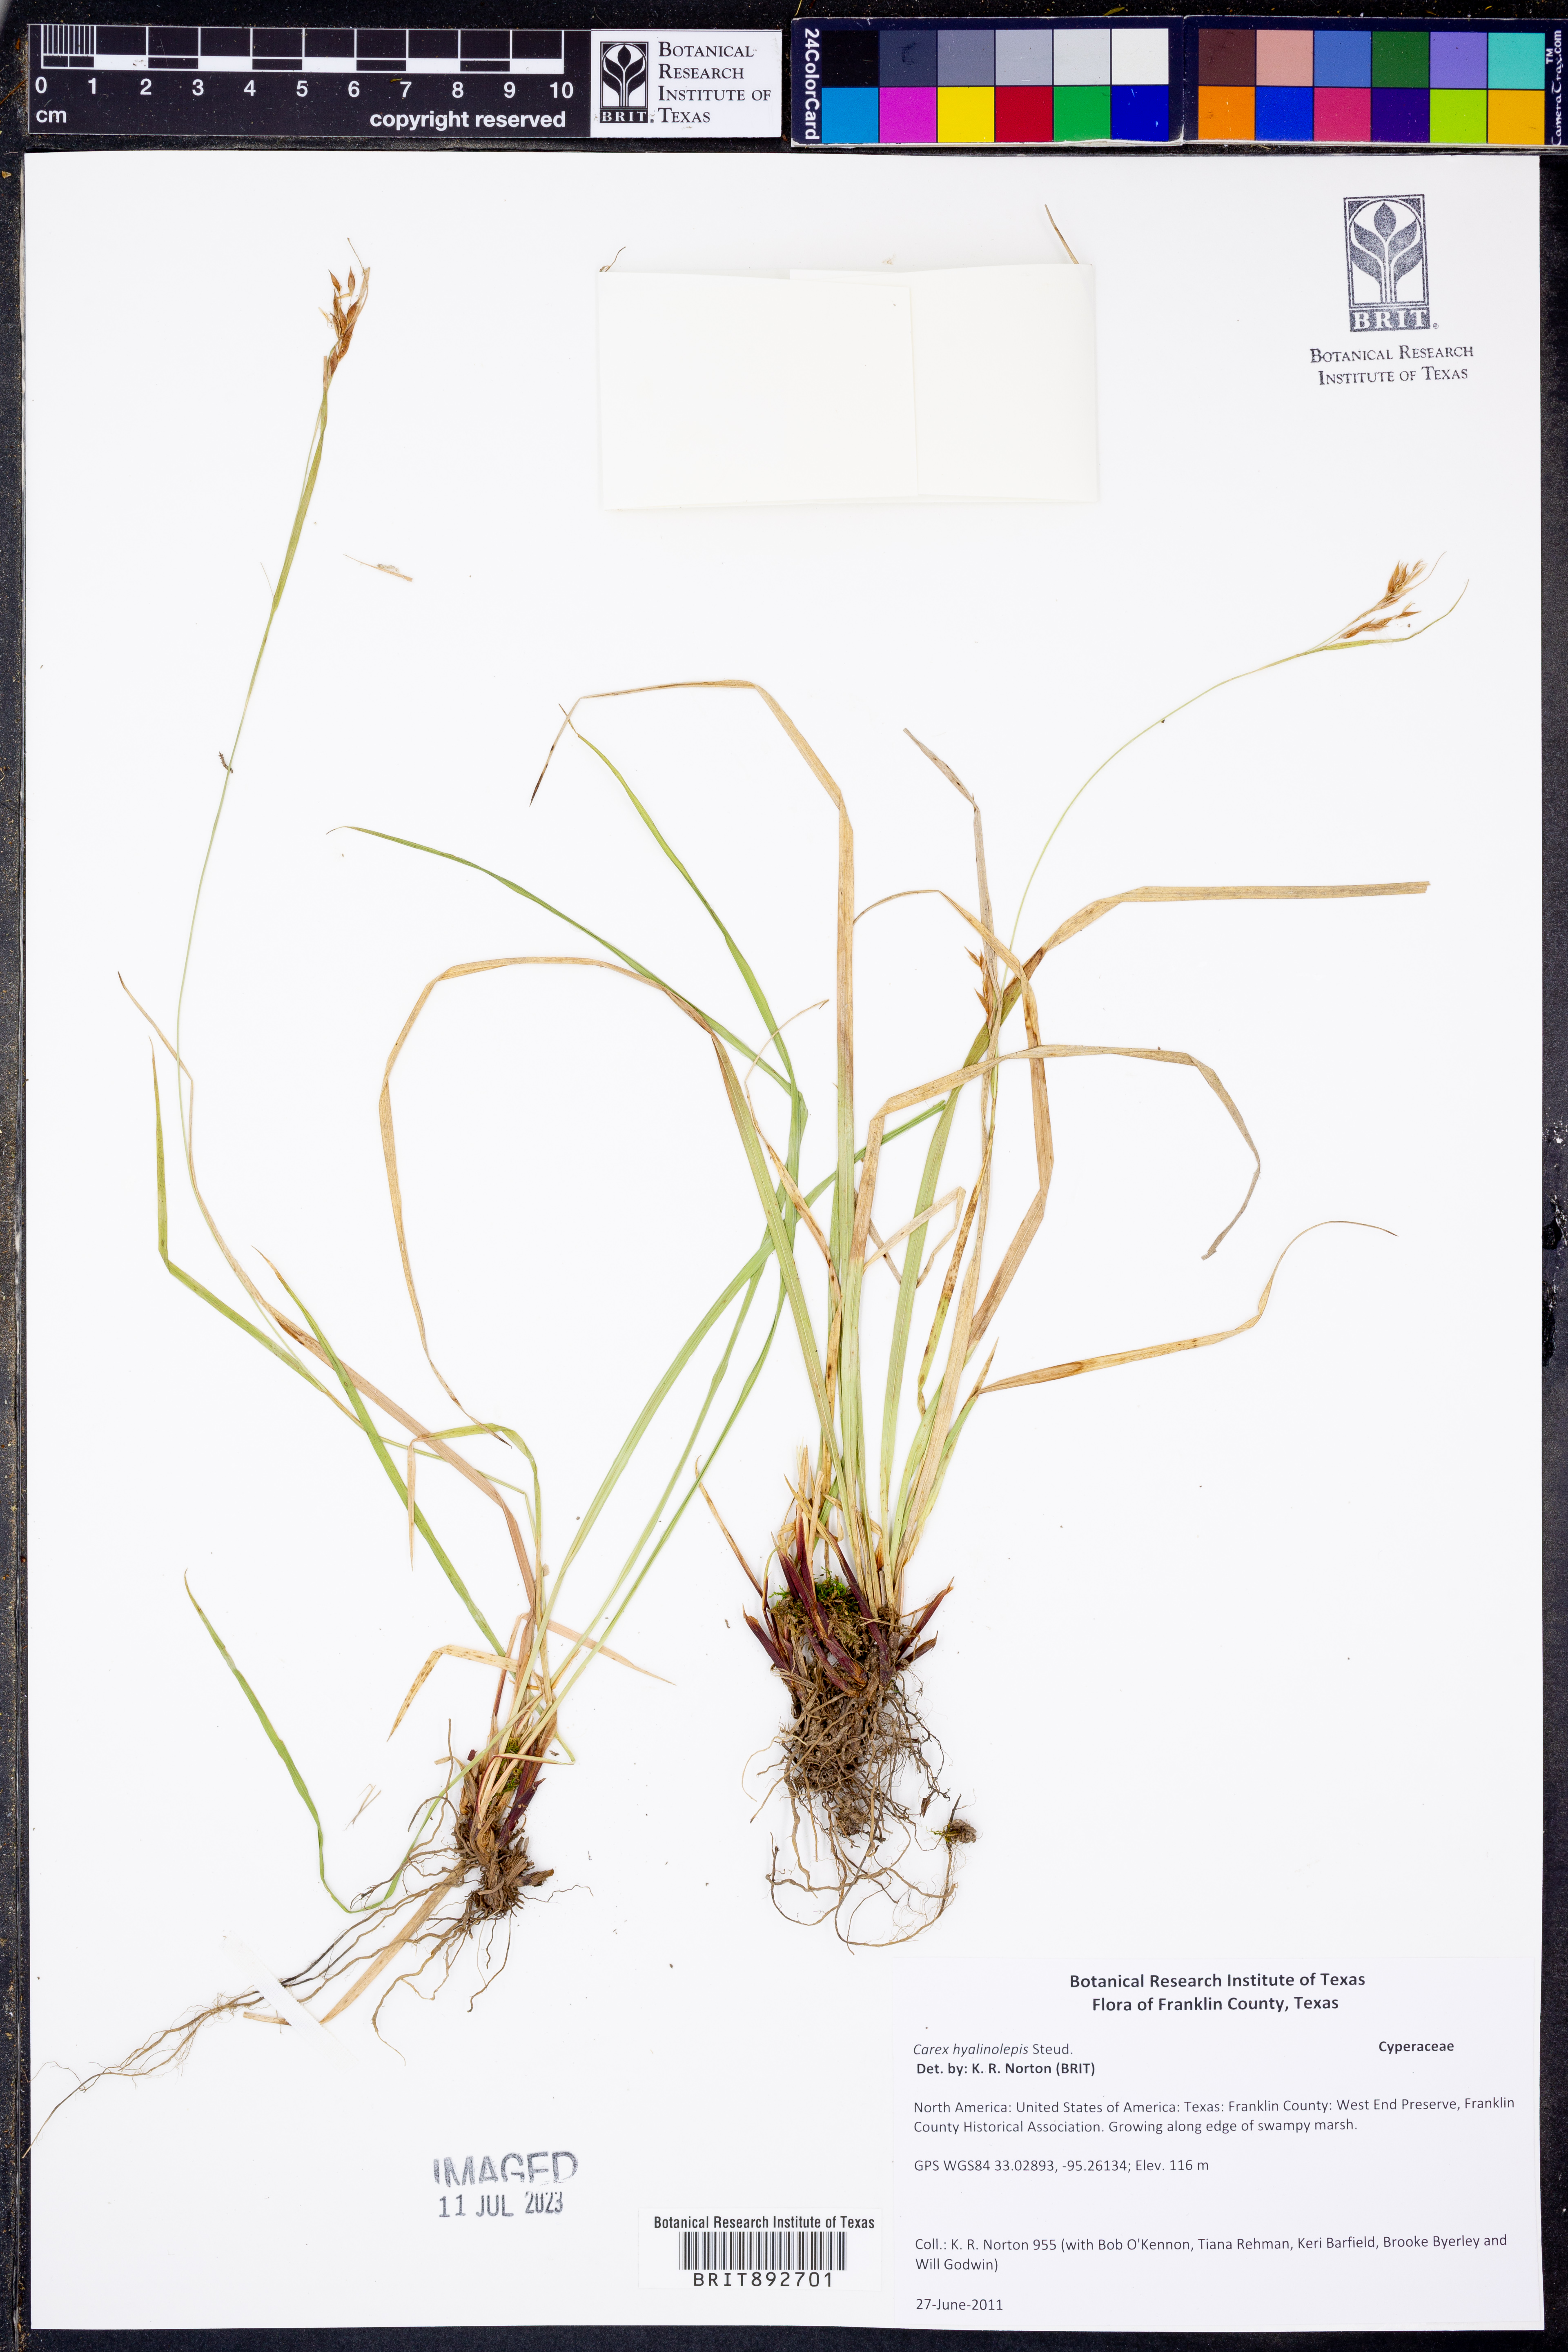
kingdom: Plantae
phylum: Tracheophyta
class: Liliopsida
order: Poales
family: Cyperaceae
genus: Carex
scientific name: Carex hyalinolepis
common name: Shoreline sedge
